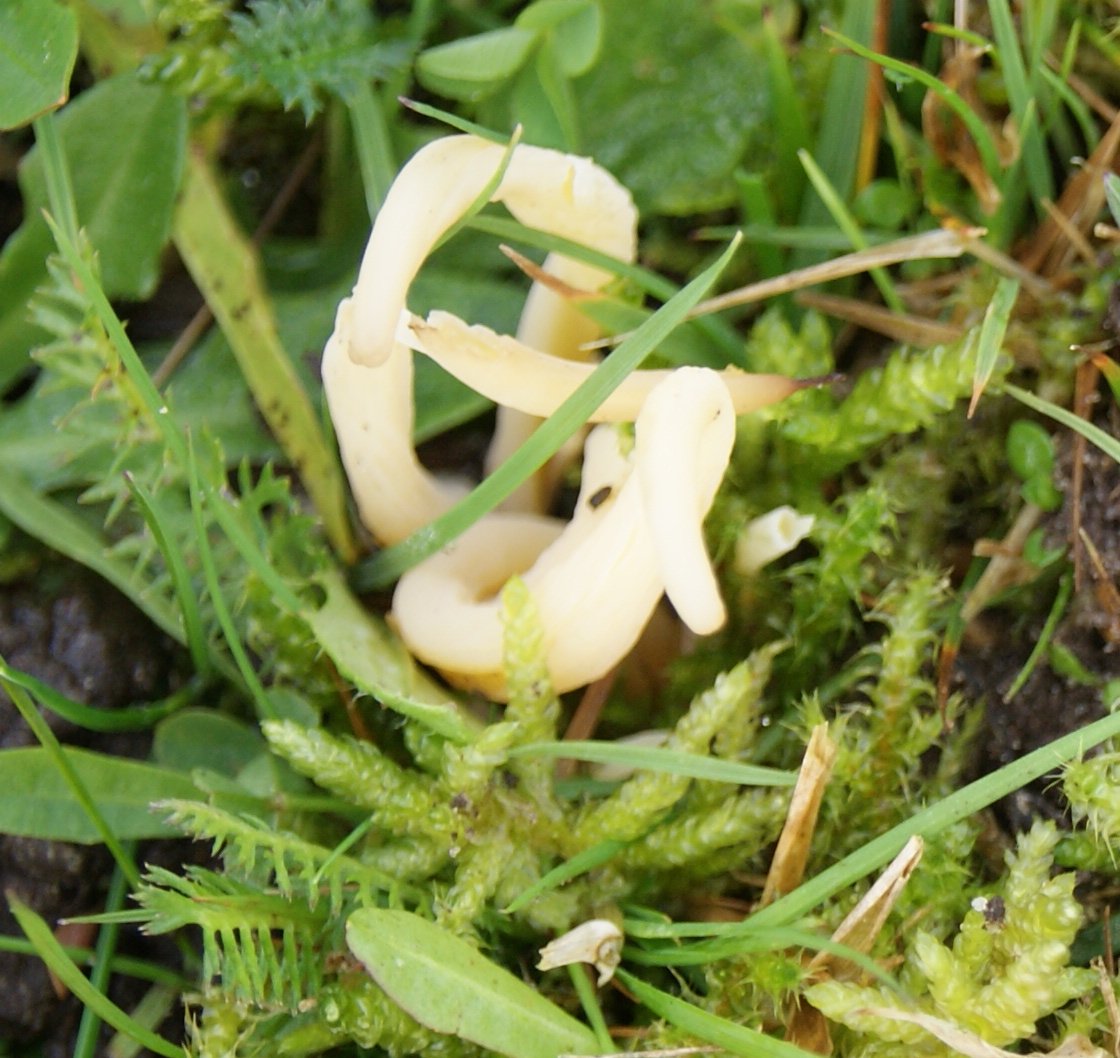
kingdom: Fungi
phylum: Basidiomycota
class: Agaricomycetes
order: Agaricales
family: Clavariaceae
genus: Clavaria
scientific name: Clavaria falcata
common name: hvid køllesvamp
